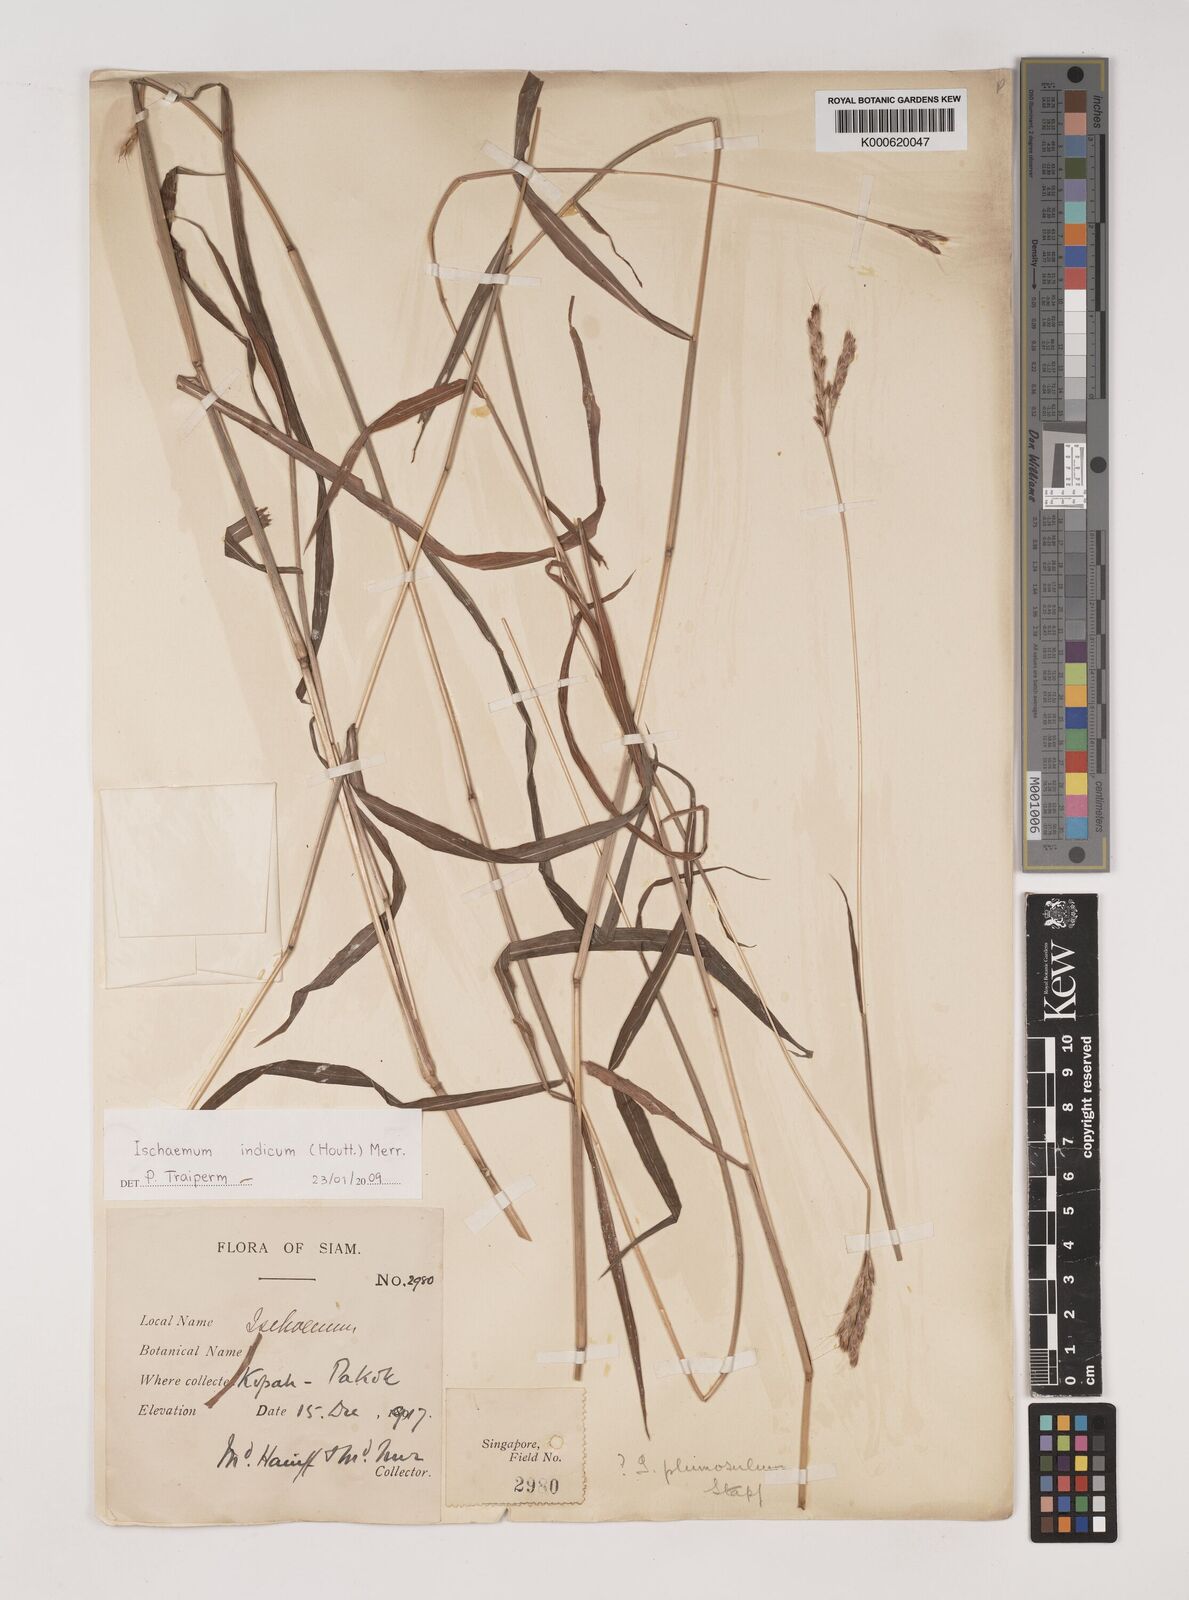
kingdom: Plantae
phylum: Tracheophyta
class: Liliopsida
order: Poales
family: Poaceae
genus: Polytrias
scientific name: Polytrias indica
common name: Indian murainagrass
